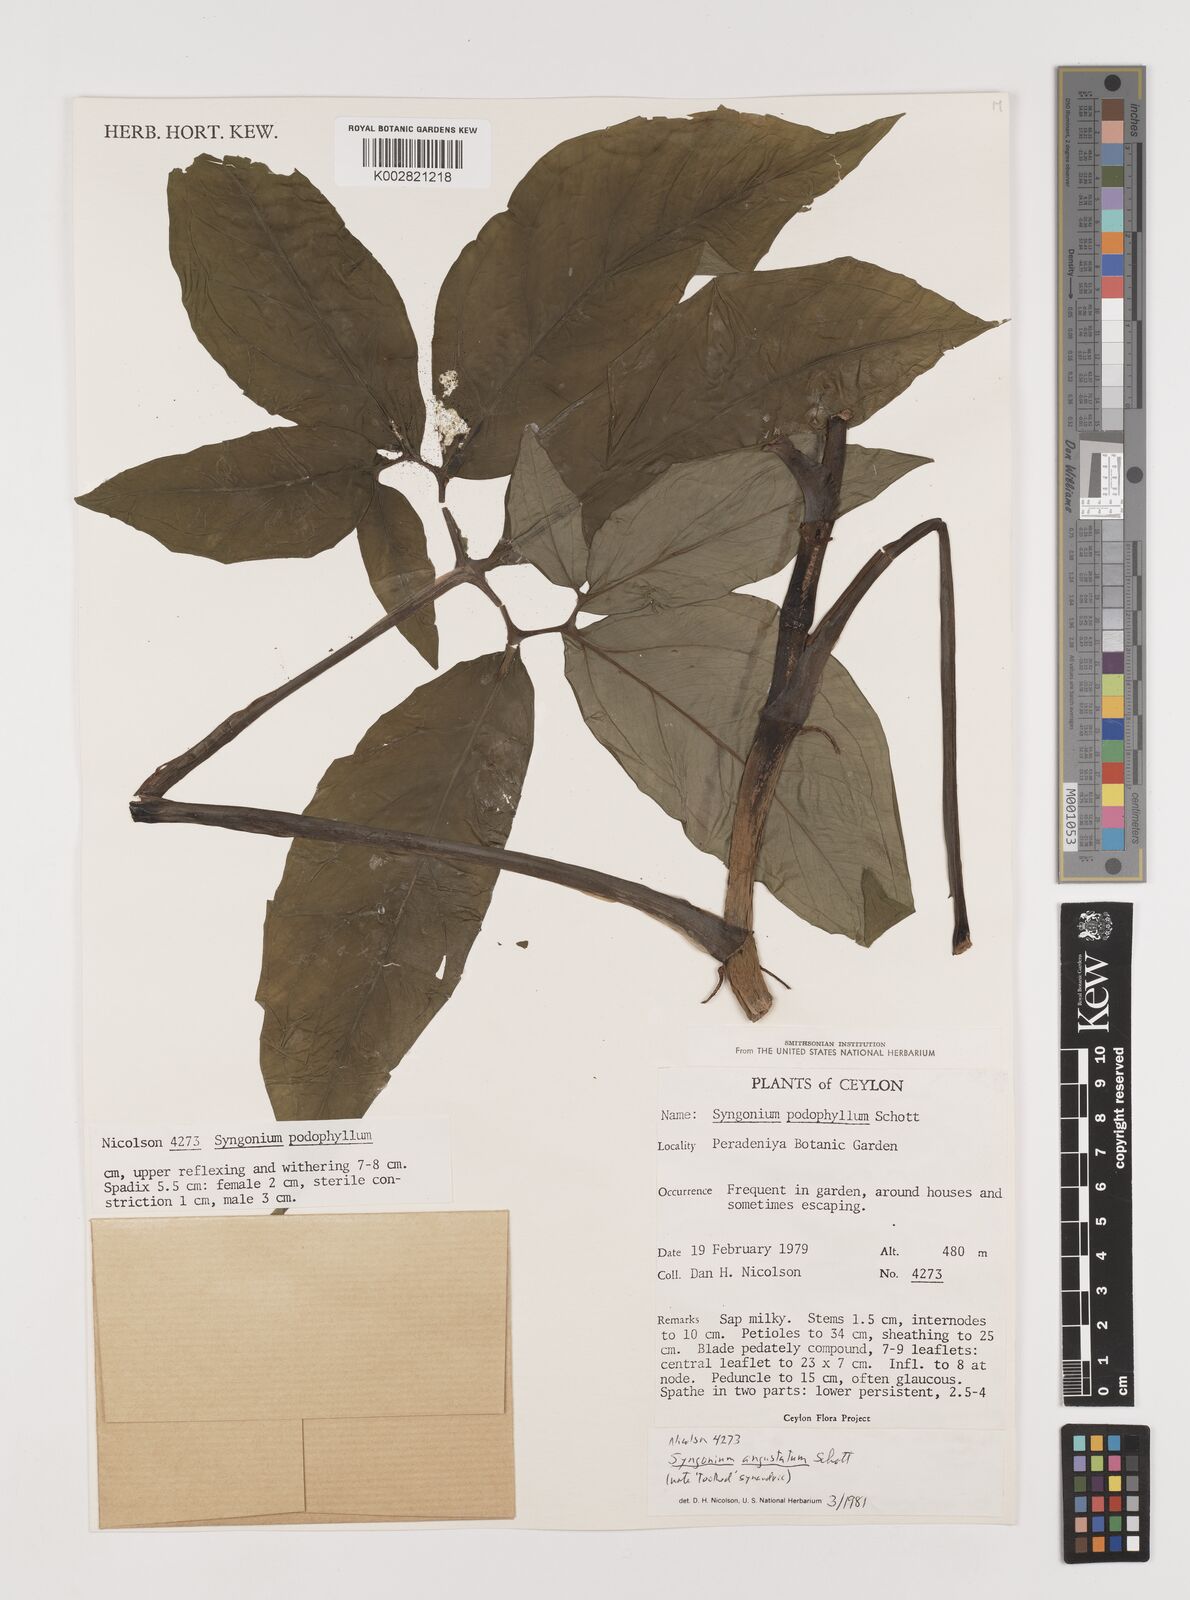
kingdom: Plantae
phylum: Tracheophyta
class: Liliopsida
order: Alismatales
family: Araceae
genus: Syngonium
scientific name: Syngonium angustatum
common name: Fivefingers
